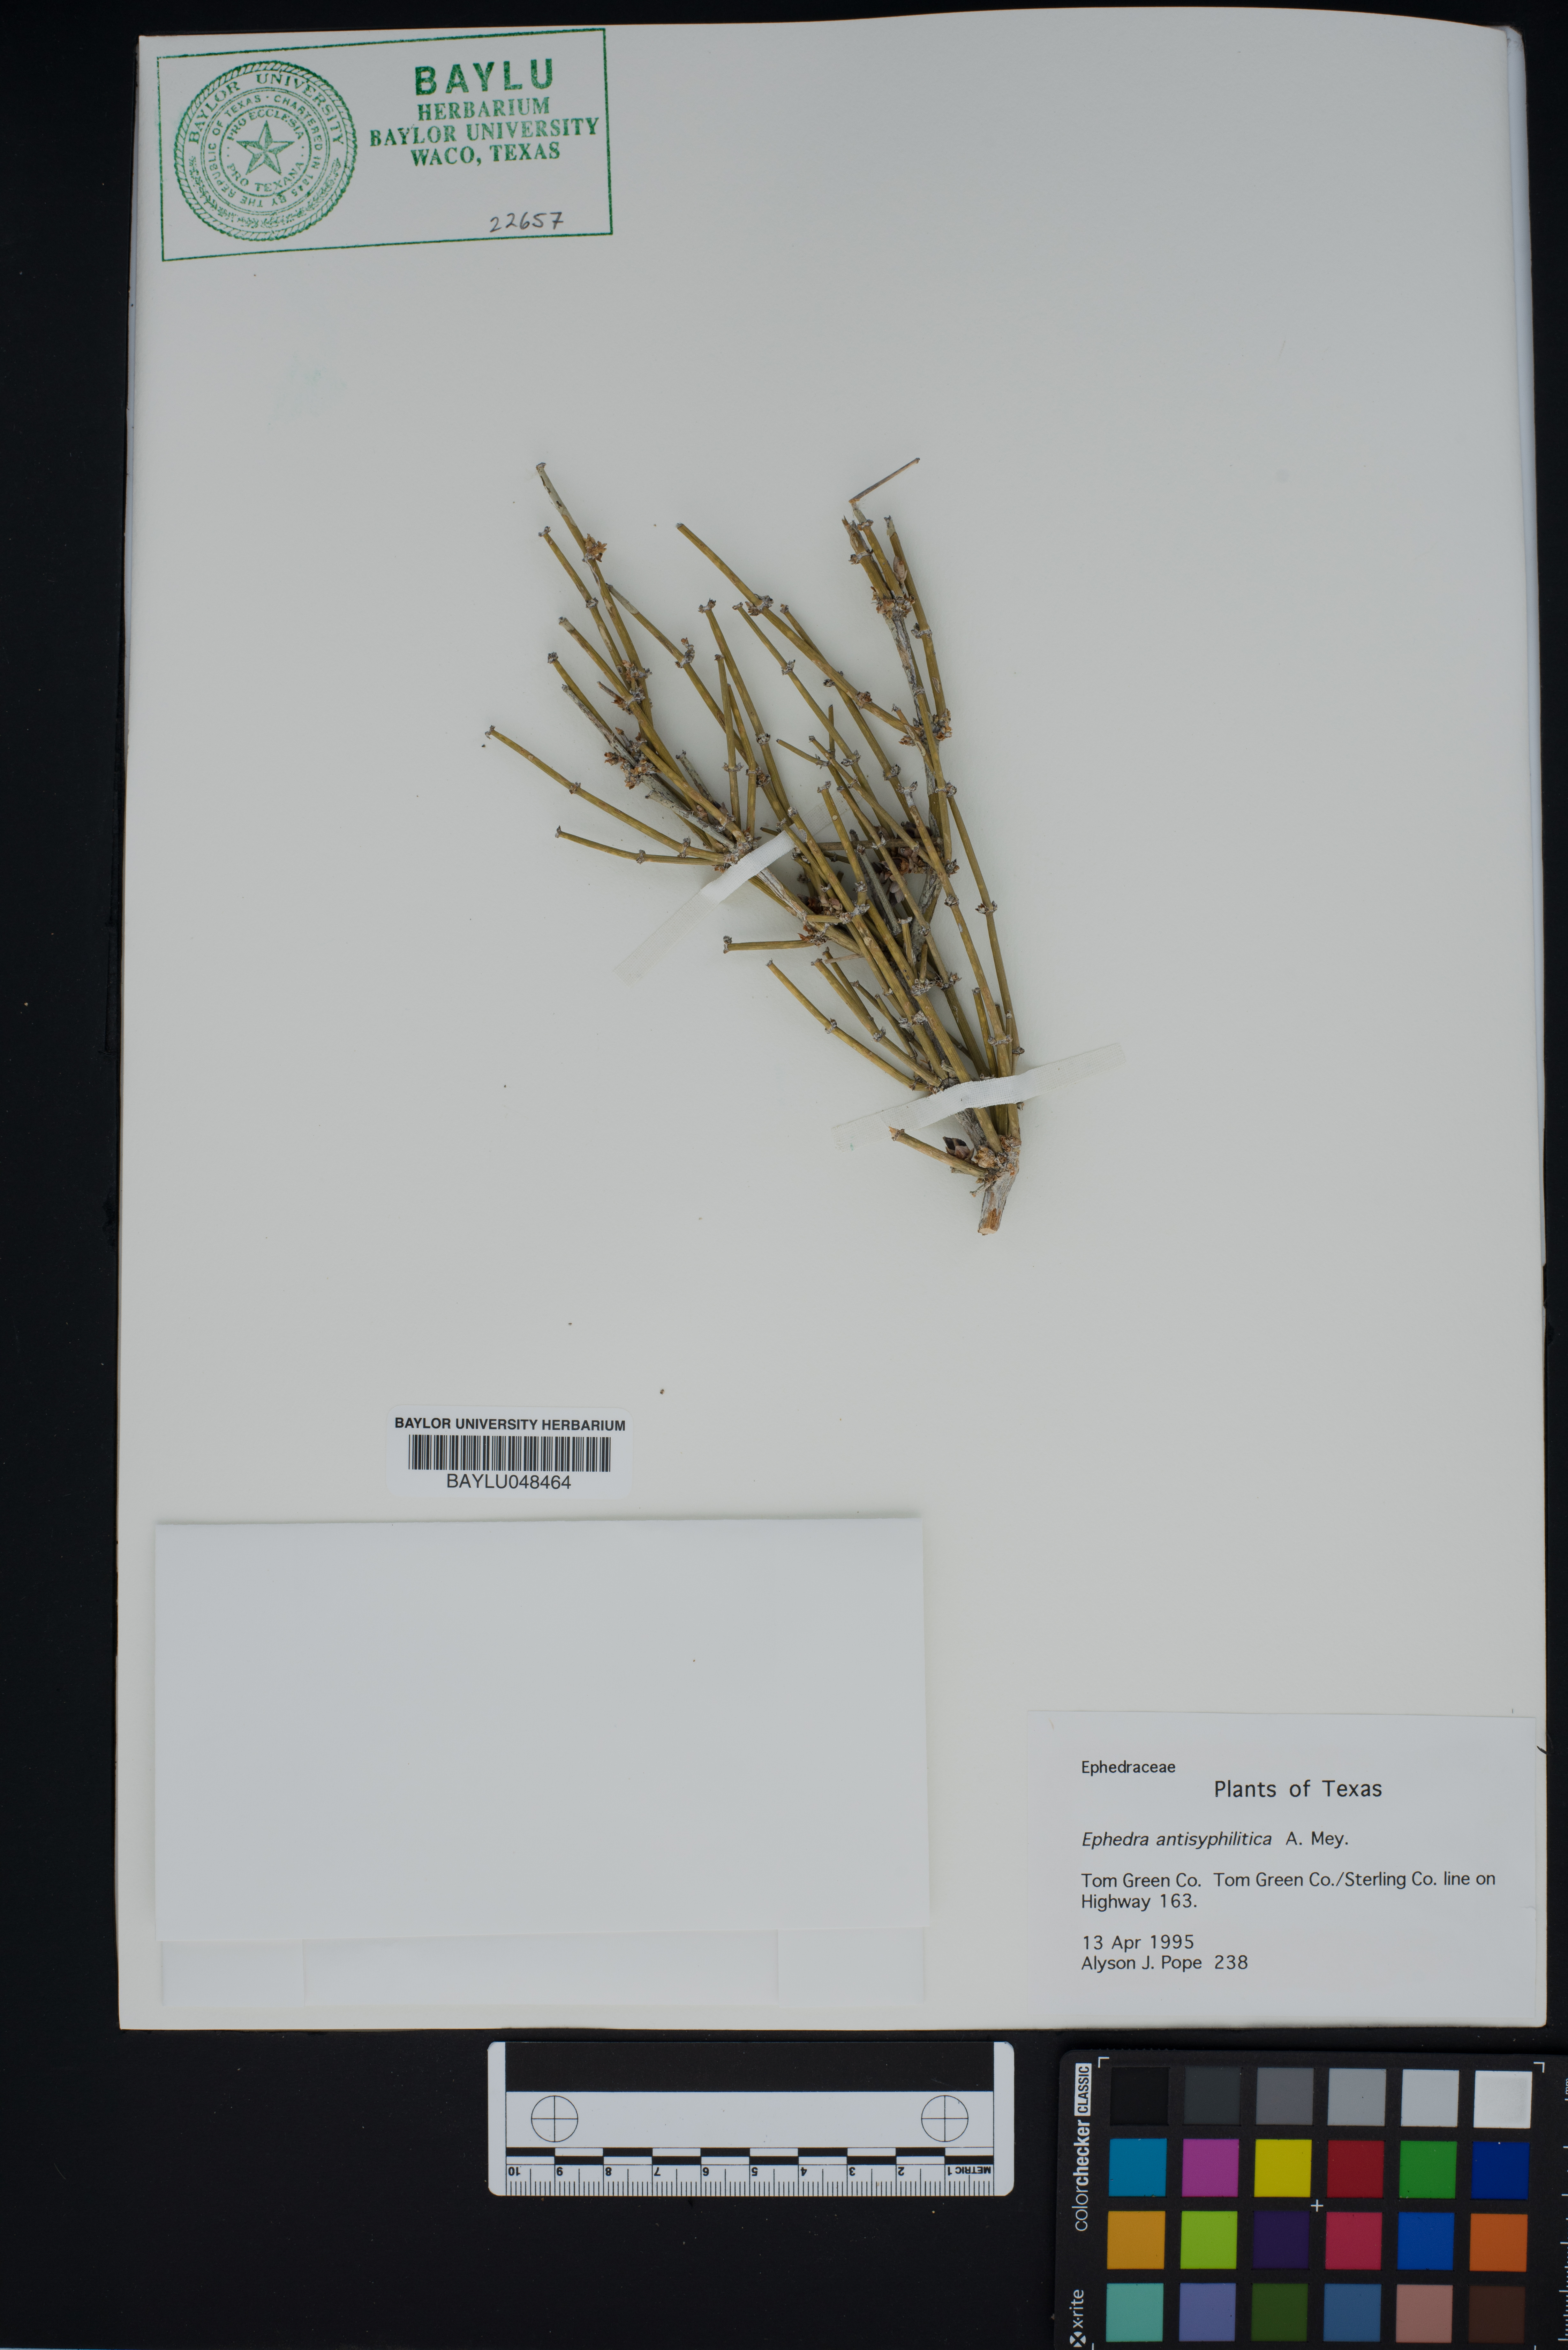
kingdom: Plantae
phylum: Tracheophyta
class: Gnetopsida
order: Ephedrales
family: Ephedraceae
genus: Ephedra
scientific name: Ephedra antisyphilitica
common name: Clipweed
